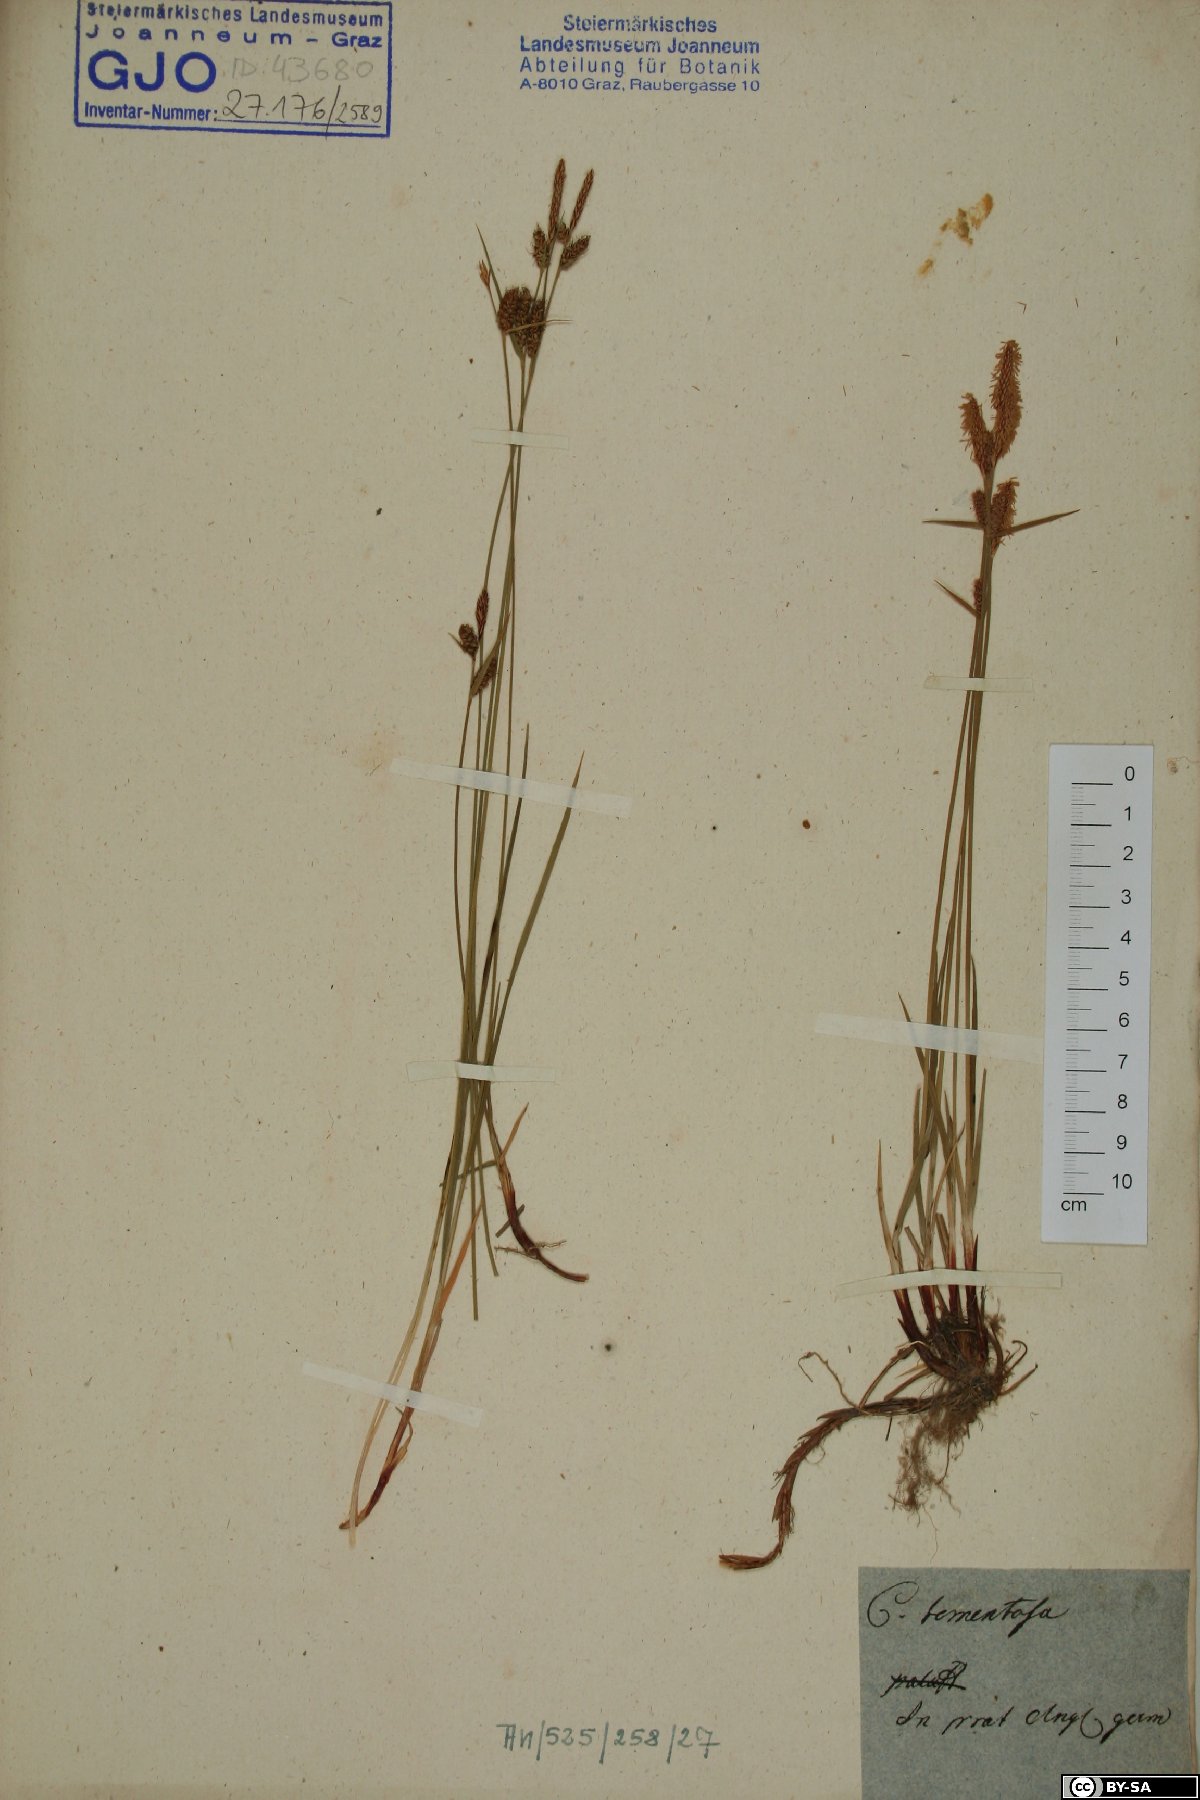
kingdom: Plantae
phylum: Tracheophyta
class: Liliopsida
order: Poales
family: Cyperaceae
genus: Carex
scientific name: Carex tomentosa
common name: Downy-fruited sedge
